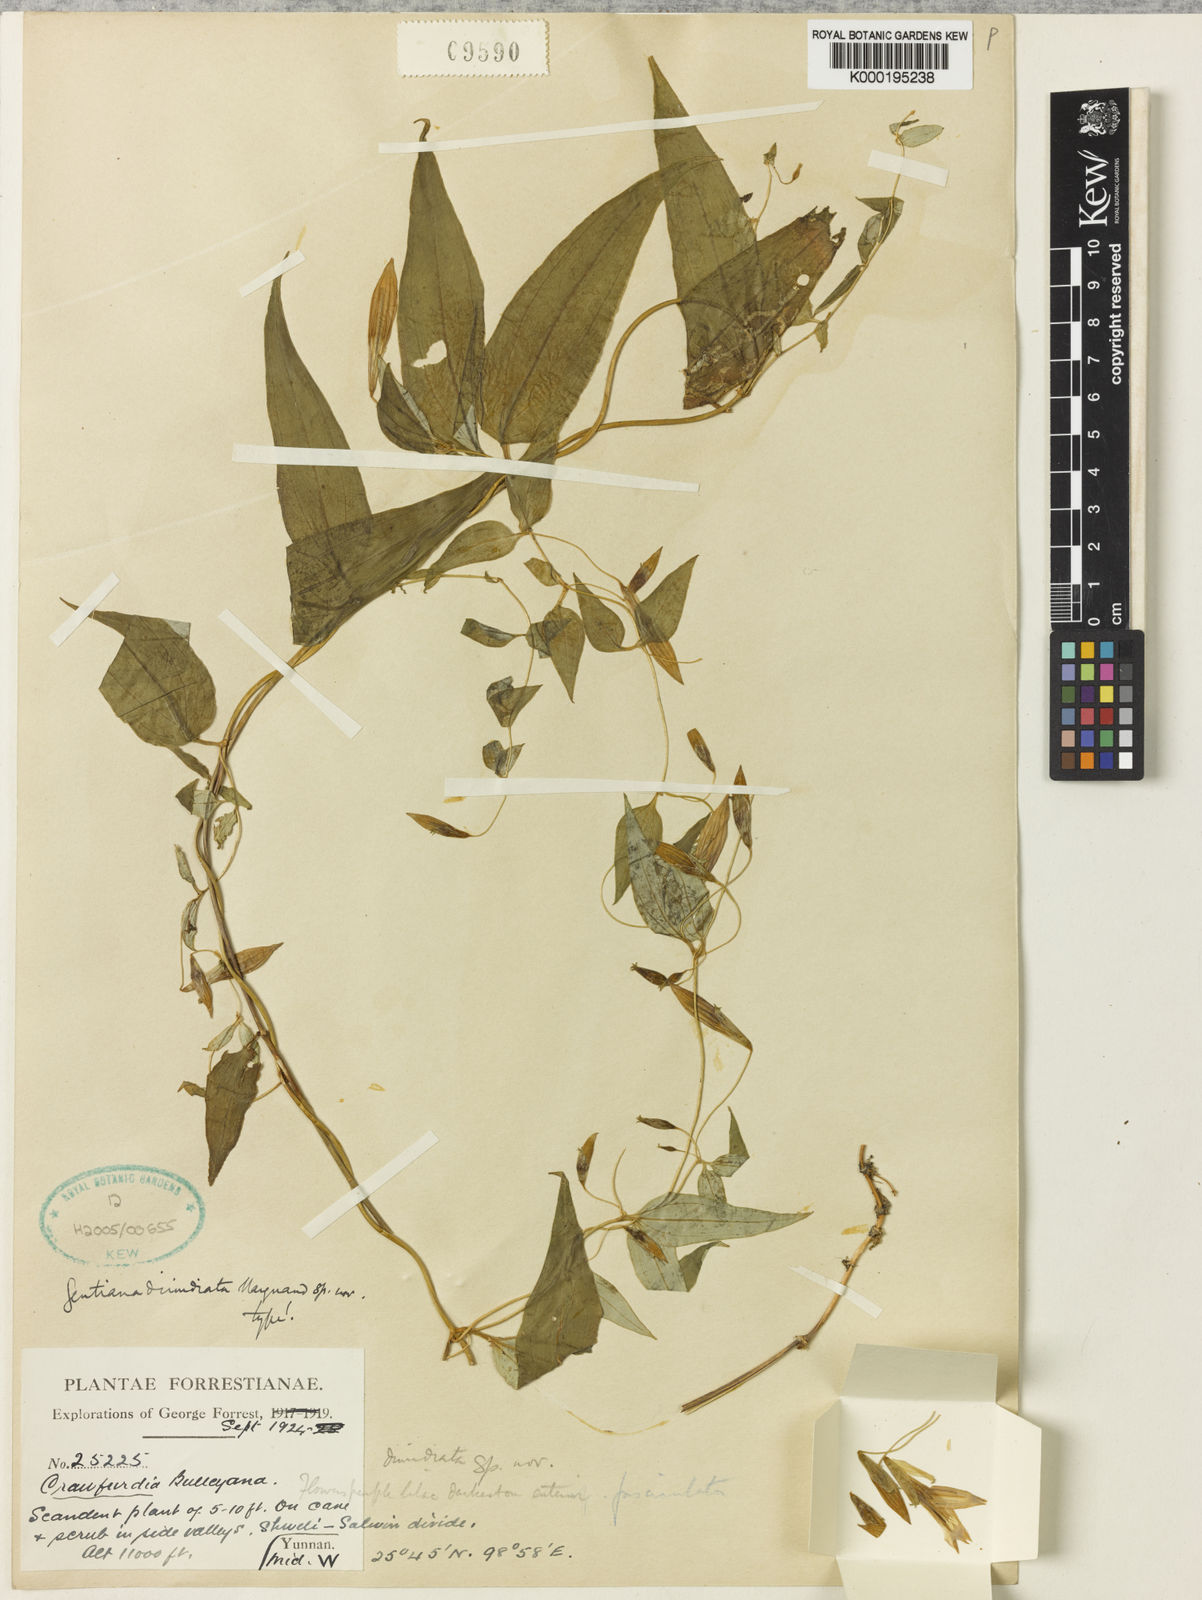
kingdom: Plantae
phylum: Tracheophyta
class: Magnoliopsida
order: Gentianales
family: Gentianaceae
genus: Crawfurdia
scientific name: Crawfurdia dimidiata
